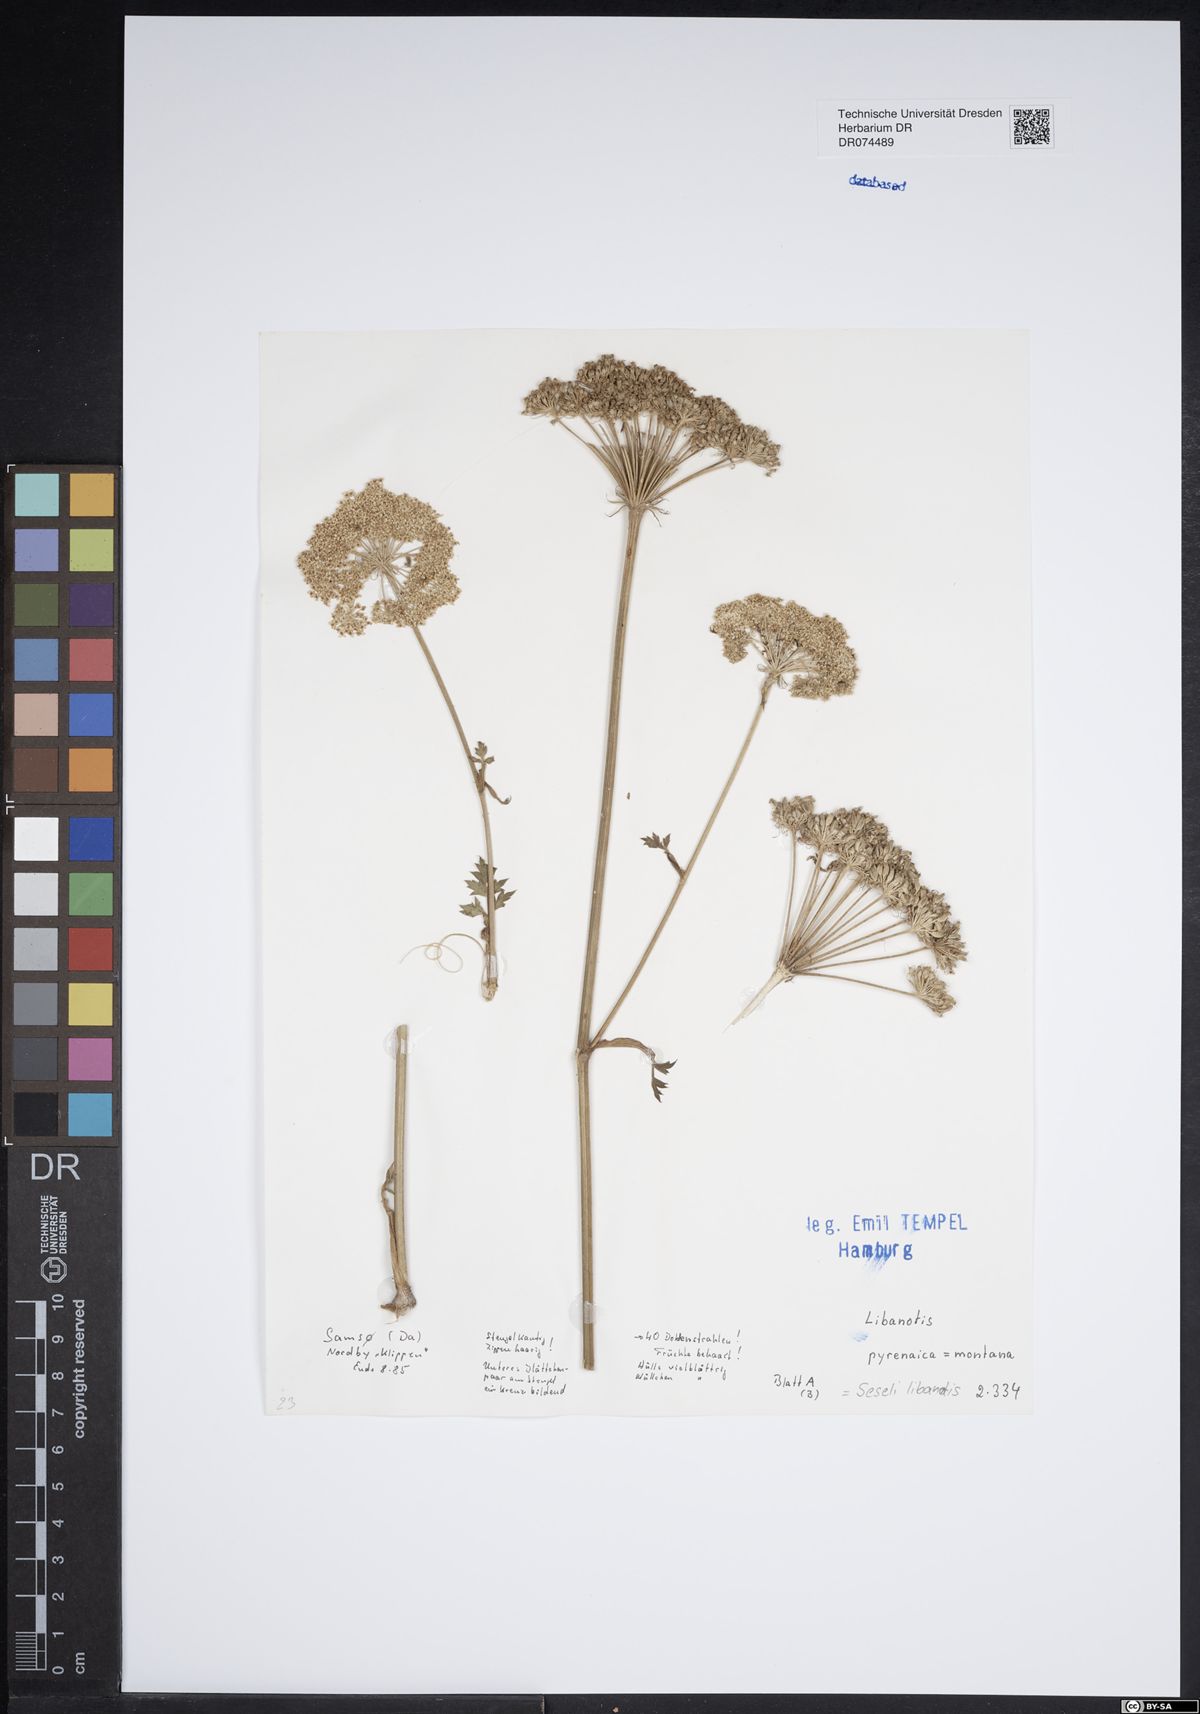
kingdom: Plantae
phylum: Tracheophyta
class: Magnoliopsida
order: Apiales
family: Apiaceae
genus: Seseli
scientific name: Seseli libanotis
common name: Mooncarrot
